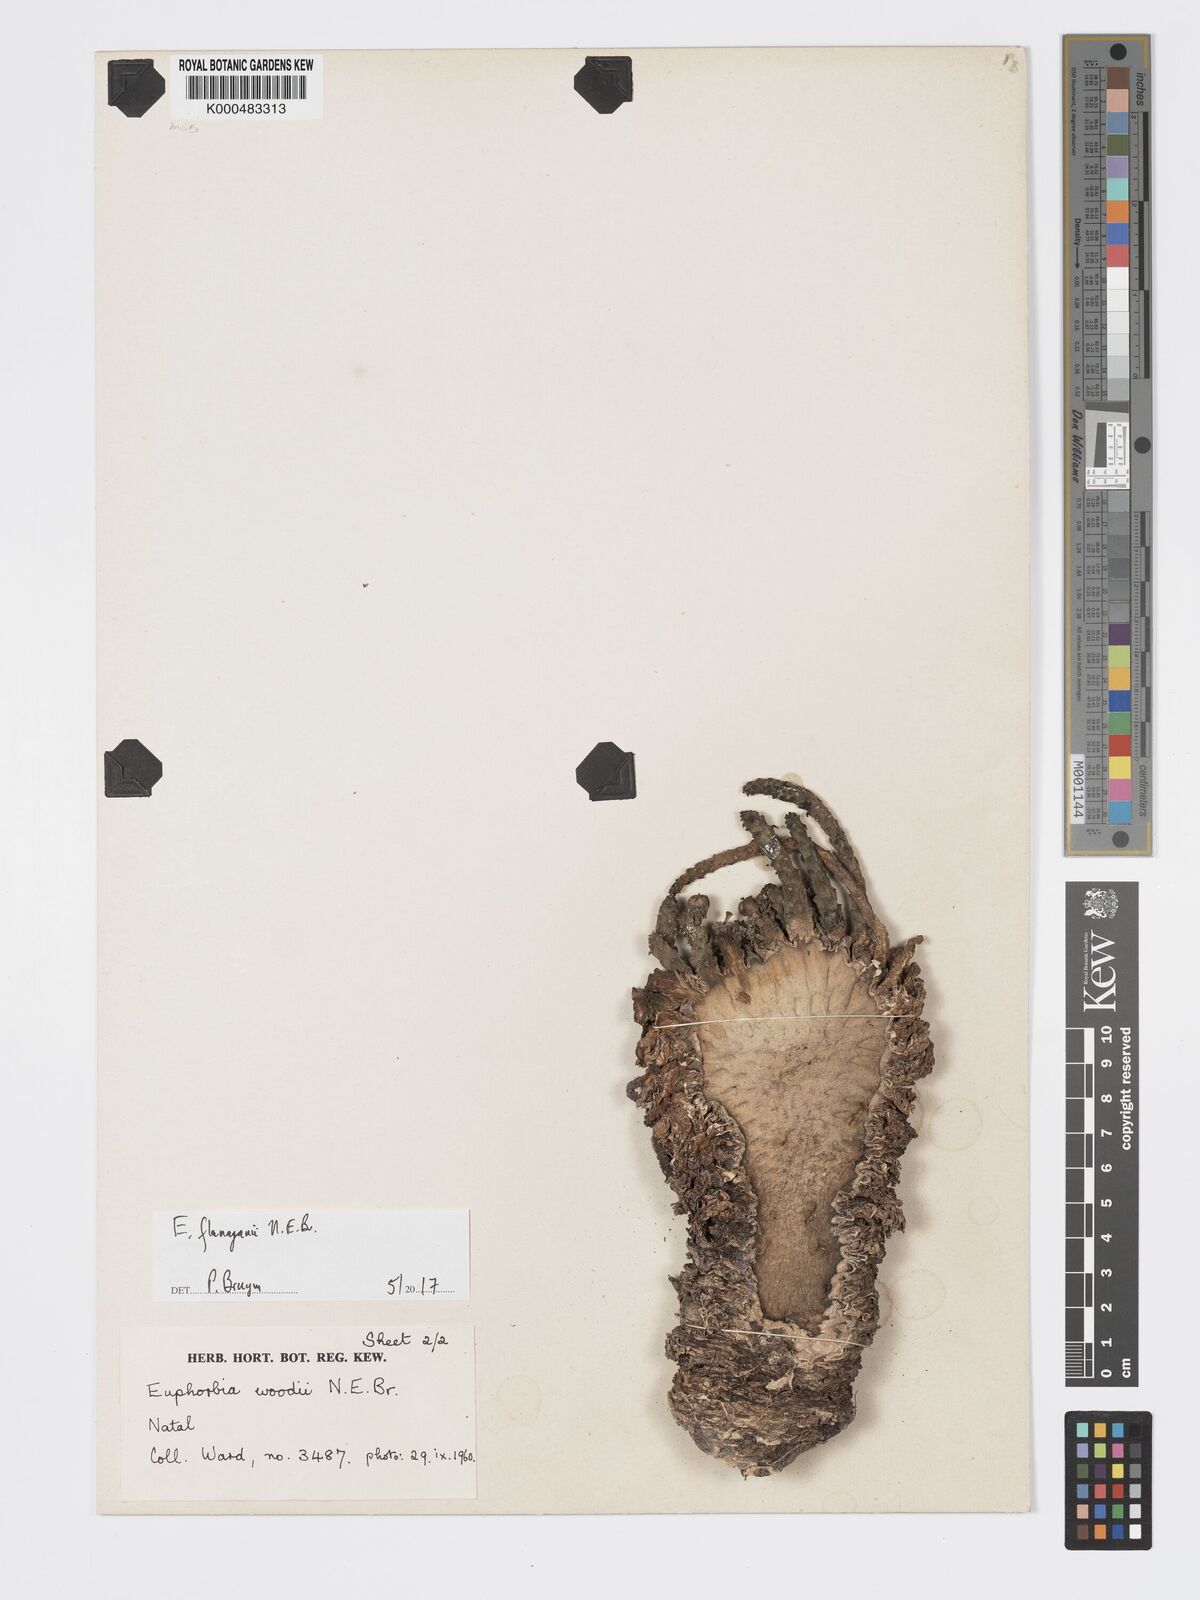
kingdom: Plantae
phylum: Tracheophyta
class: Magnoliopsida
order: Malpighiales
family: Euphorbiaceae
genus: Euphorbia
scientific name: Euphorbia woodii
